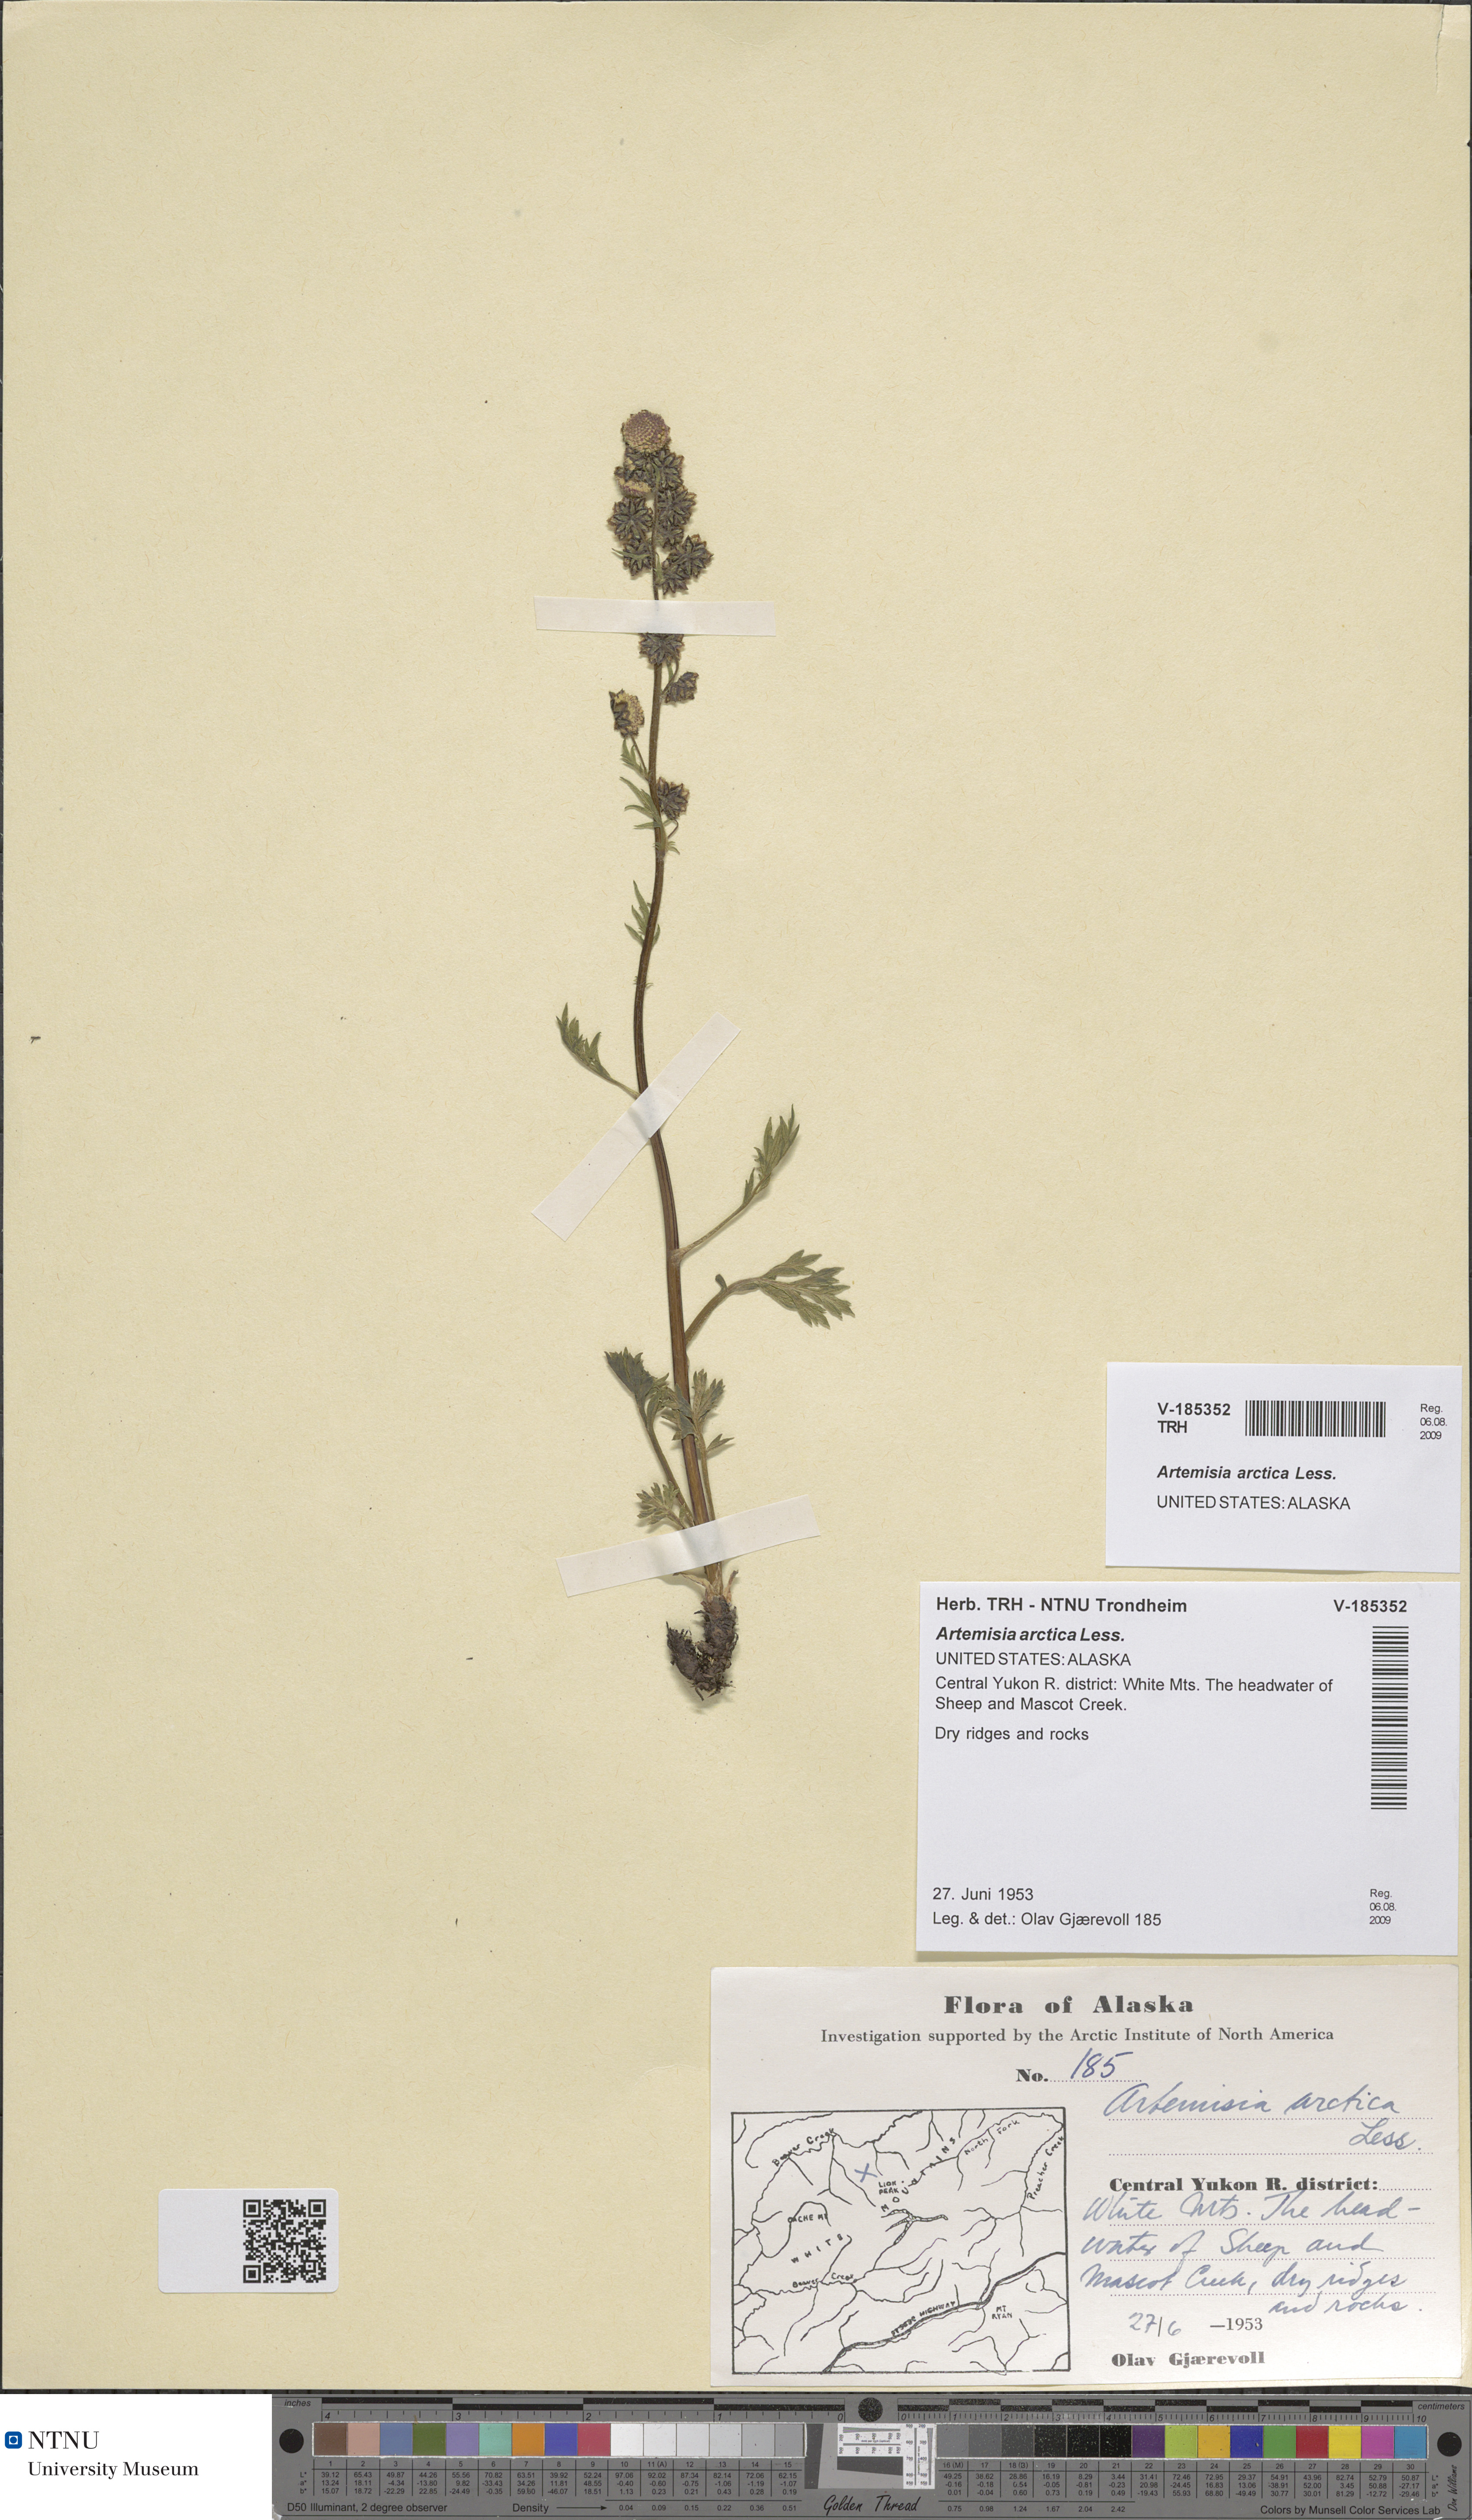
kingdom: Plantae
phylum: Tracheophyta
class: Magnoliopsida
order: Asterales
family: Asteraceae
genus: Artemisia
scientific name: Artemisia norvegica
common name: Norwegian mugwort
